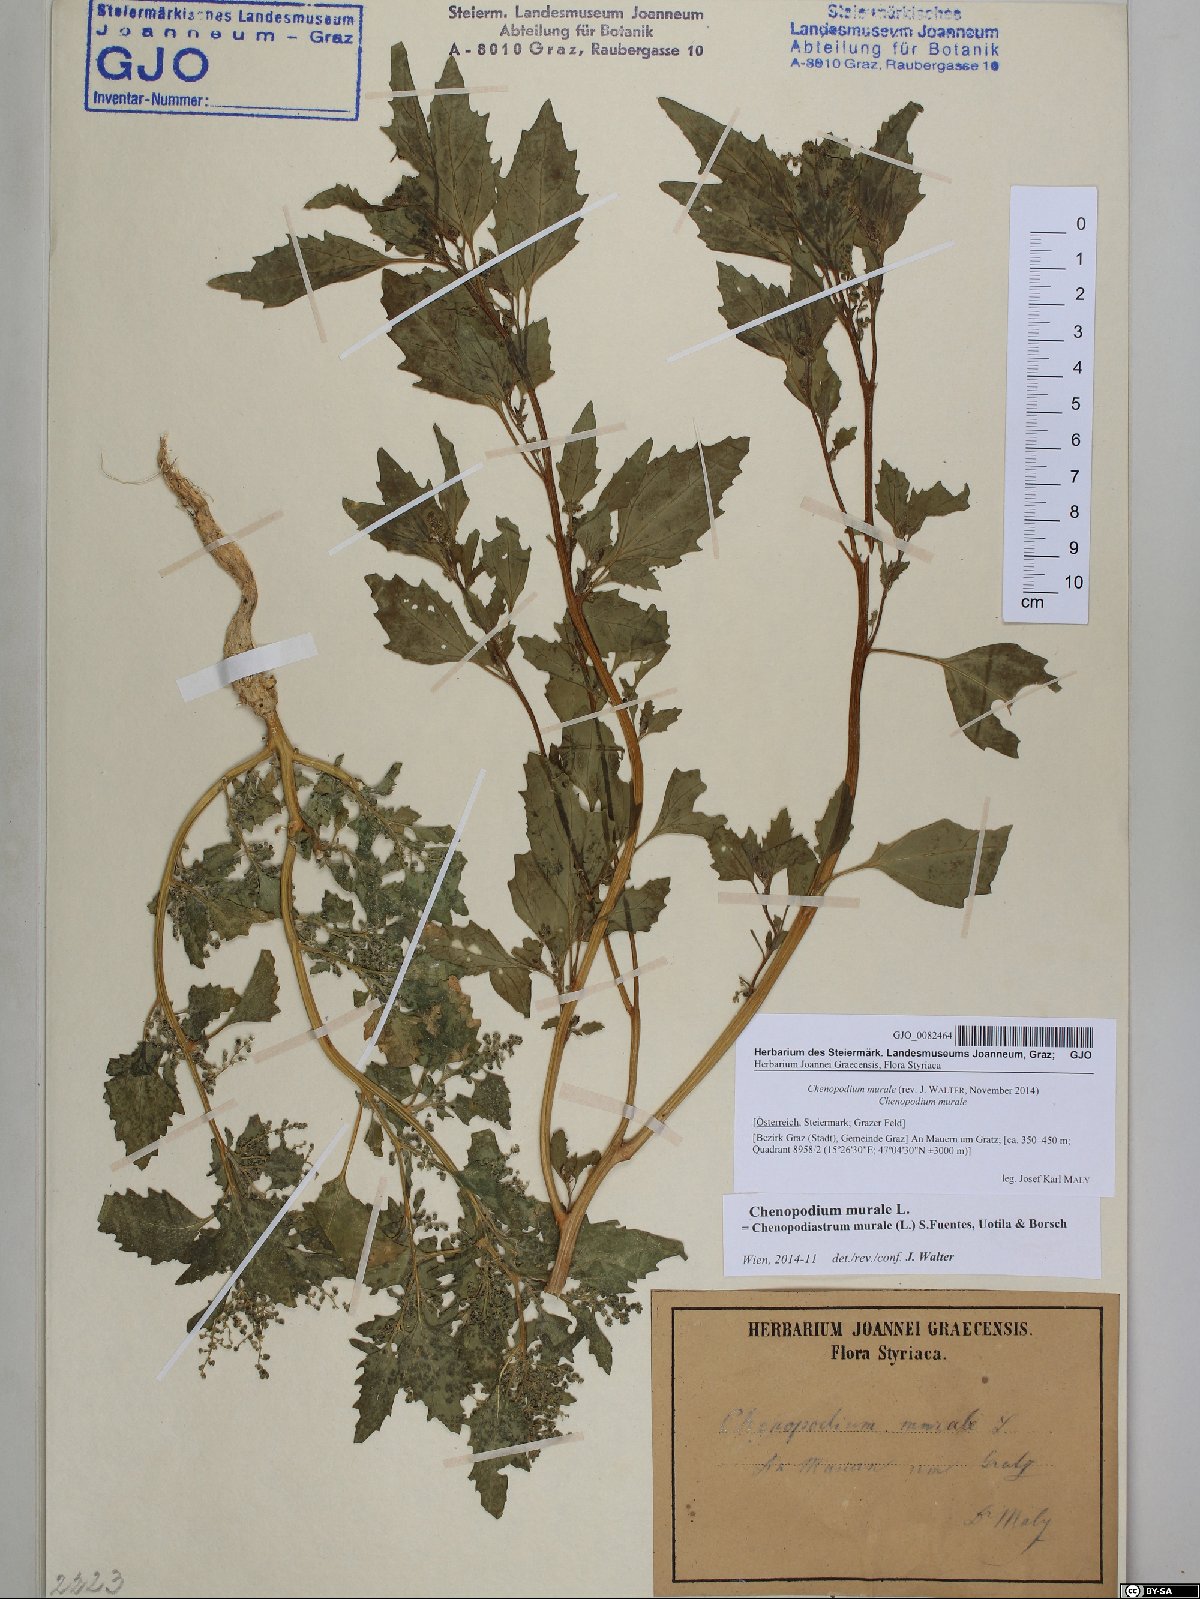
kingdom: Plantae
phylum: Tracheophyta
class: Magnoliopsida
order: Caryophyllales
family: Amaranthaceae
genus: Chenopodiastrum
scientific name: Chenopodiastrum murale
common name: Sowbane
